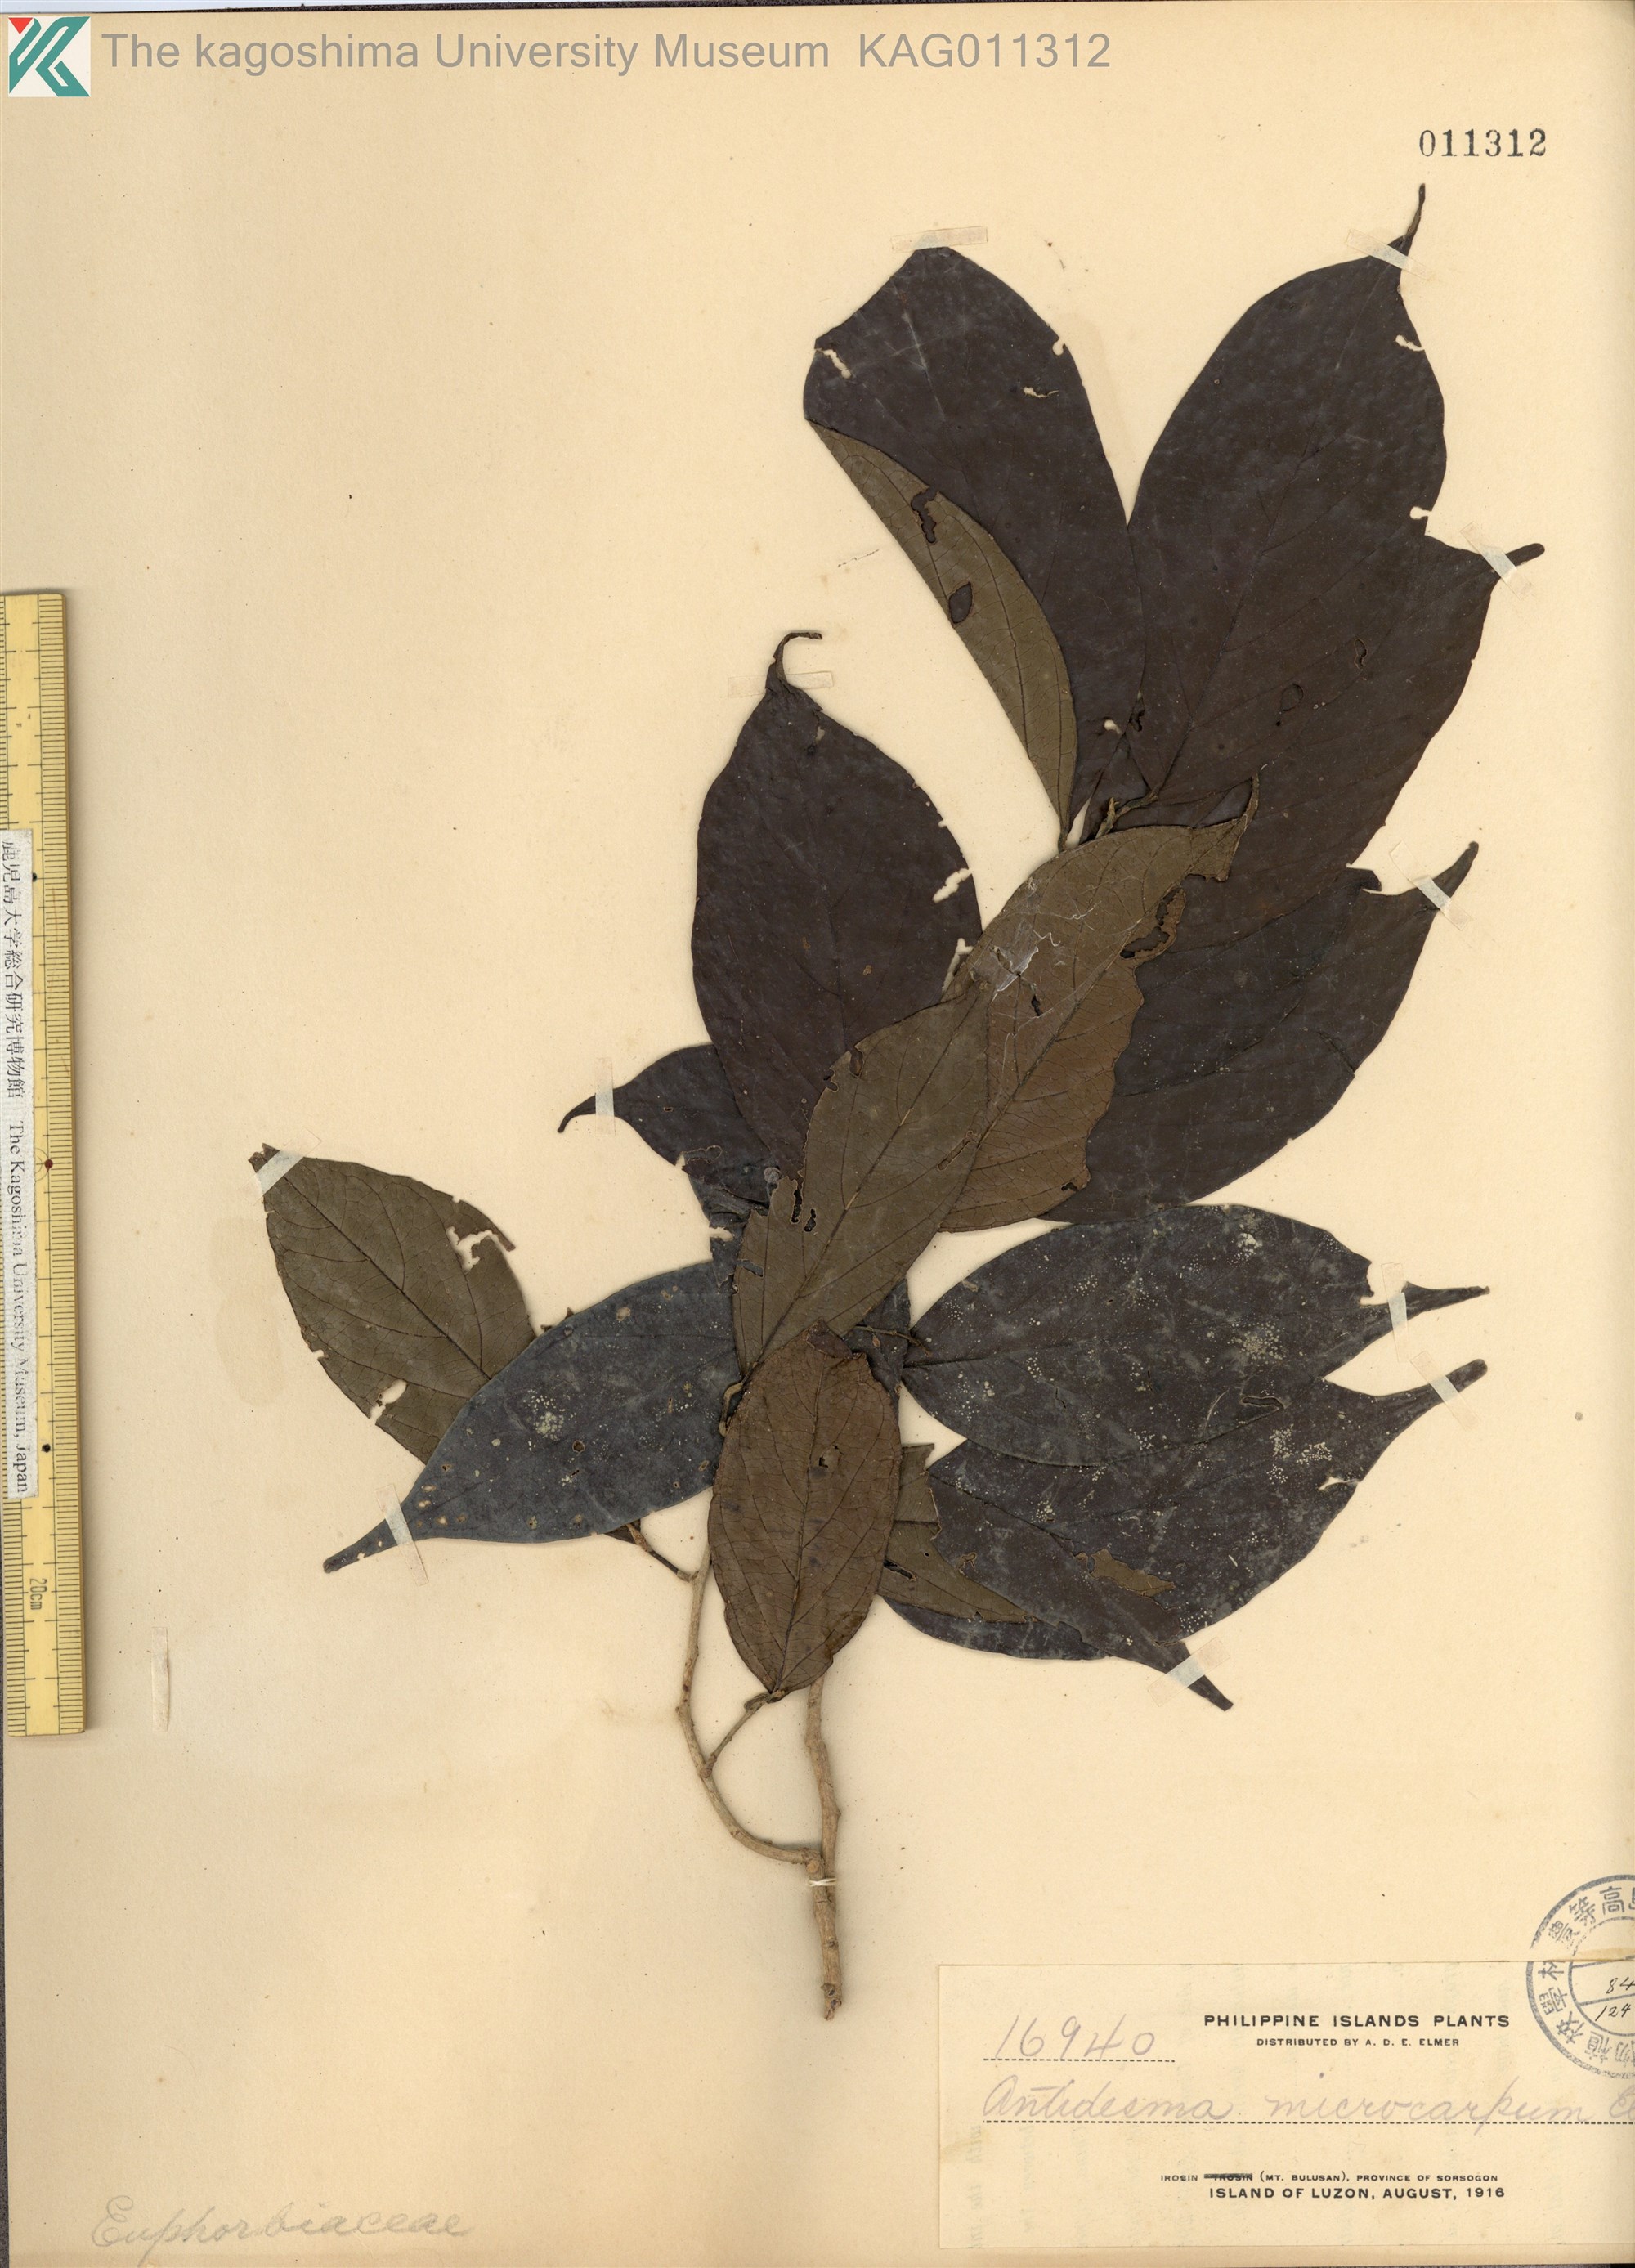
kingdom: Plantae
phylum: Tracheophyta
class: Magnoliopsida
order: Malpighiales
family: Phyllanthaceae
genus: Antidesma
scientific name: Antidesma microcarpum
